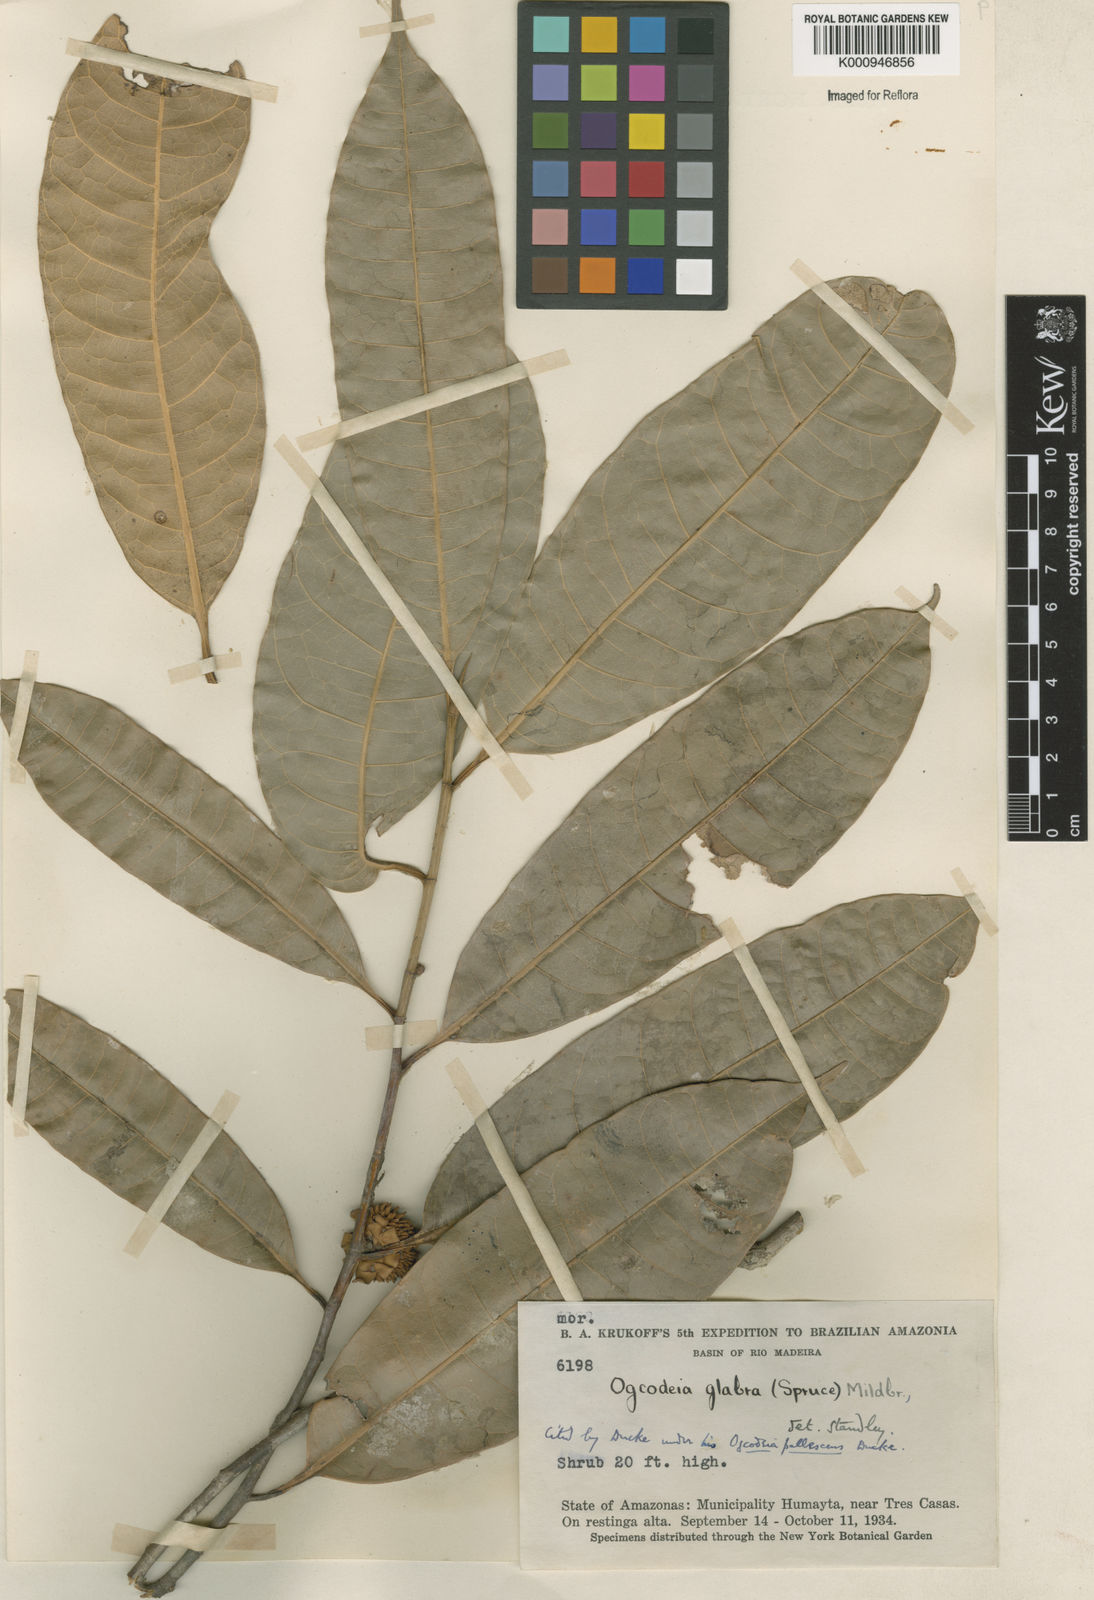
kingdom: Plantae
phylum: Tracheophyta
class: Magnoliopsida
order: Rosales
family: Moraceae
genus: Naucleopsis
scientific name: Naucleopsis glabra
